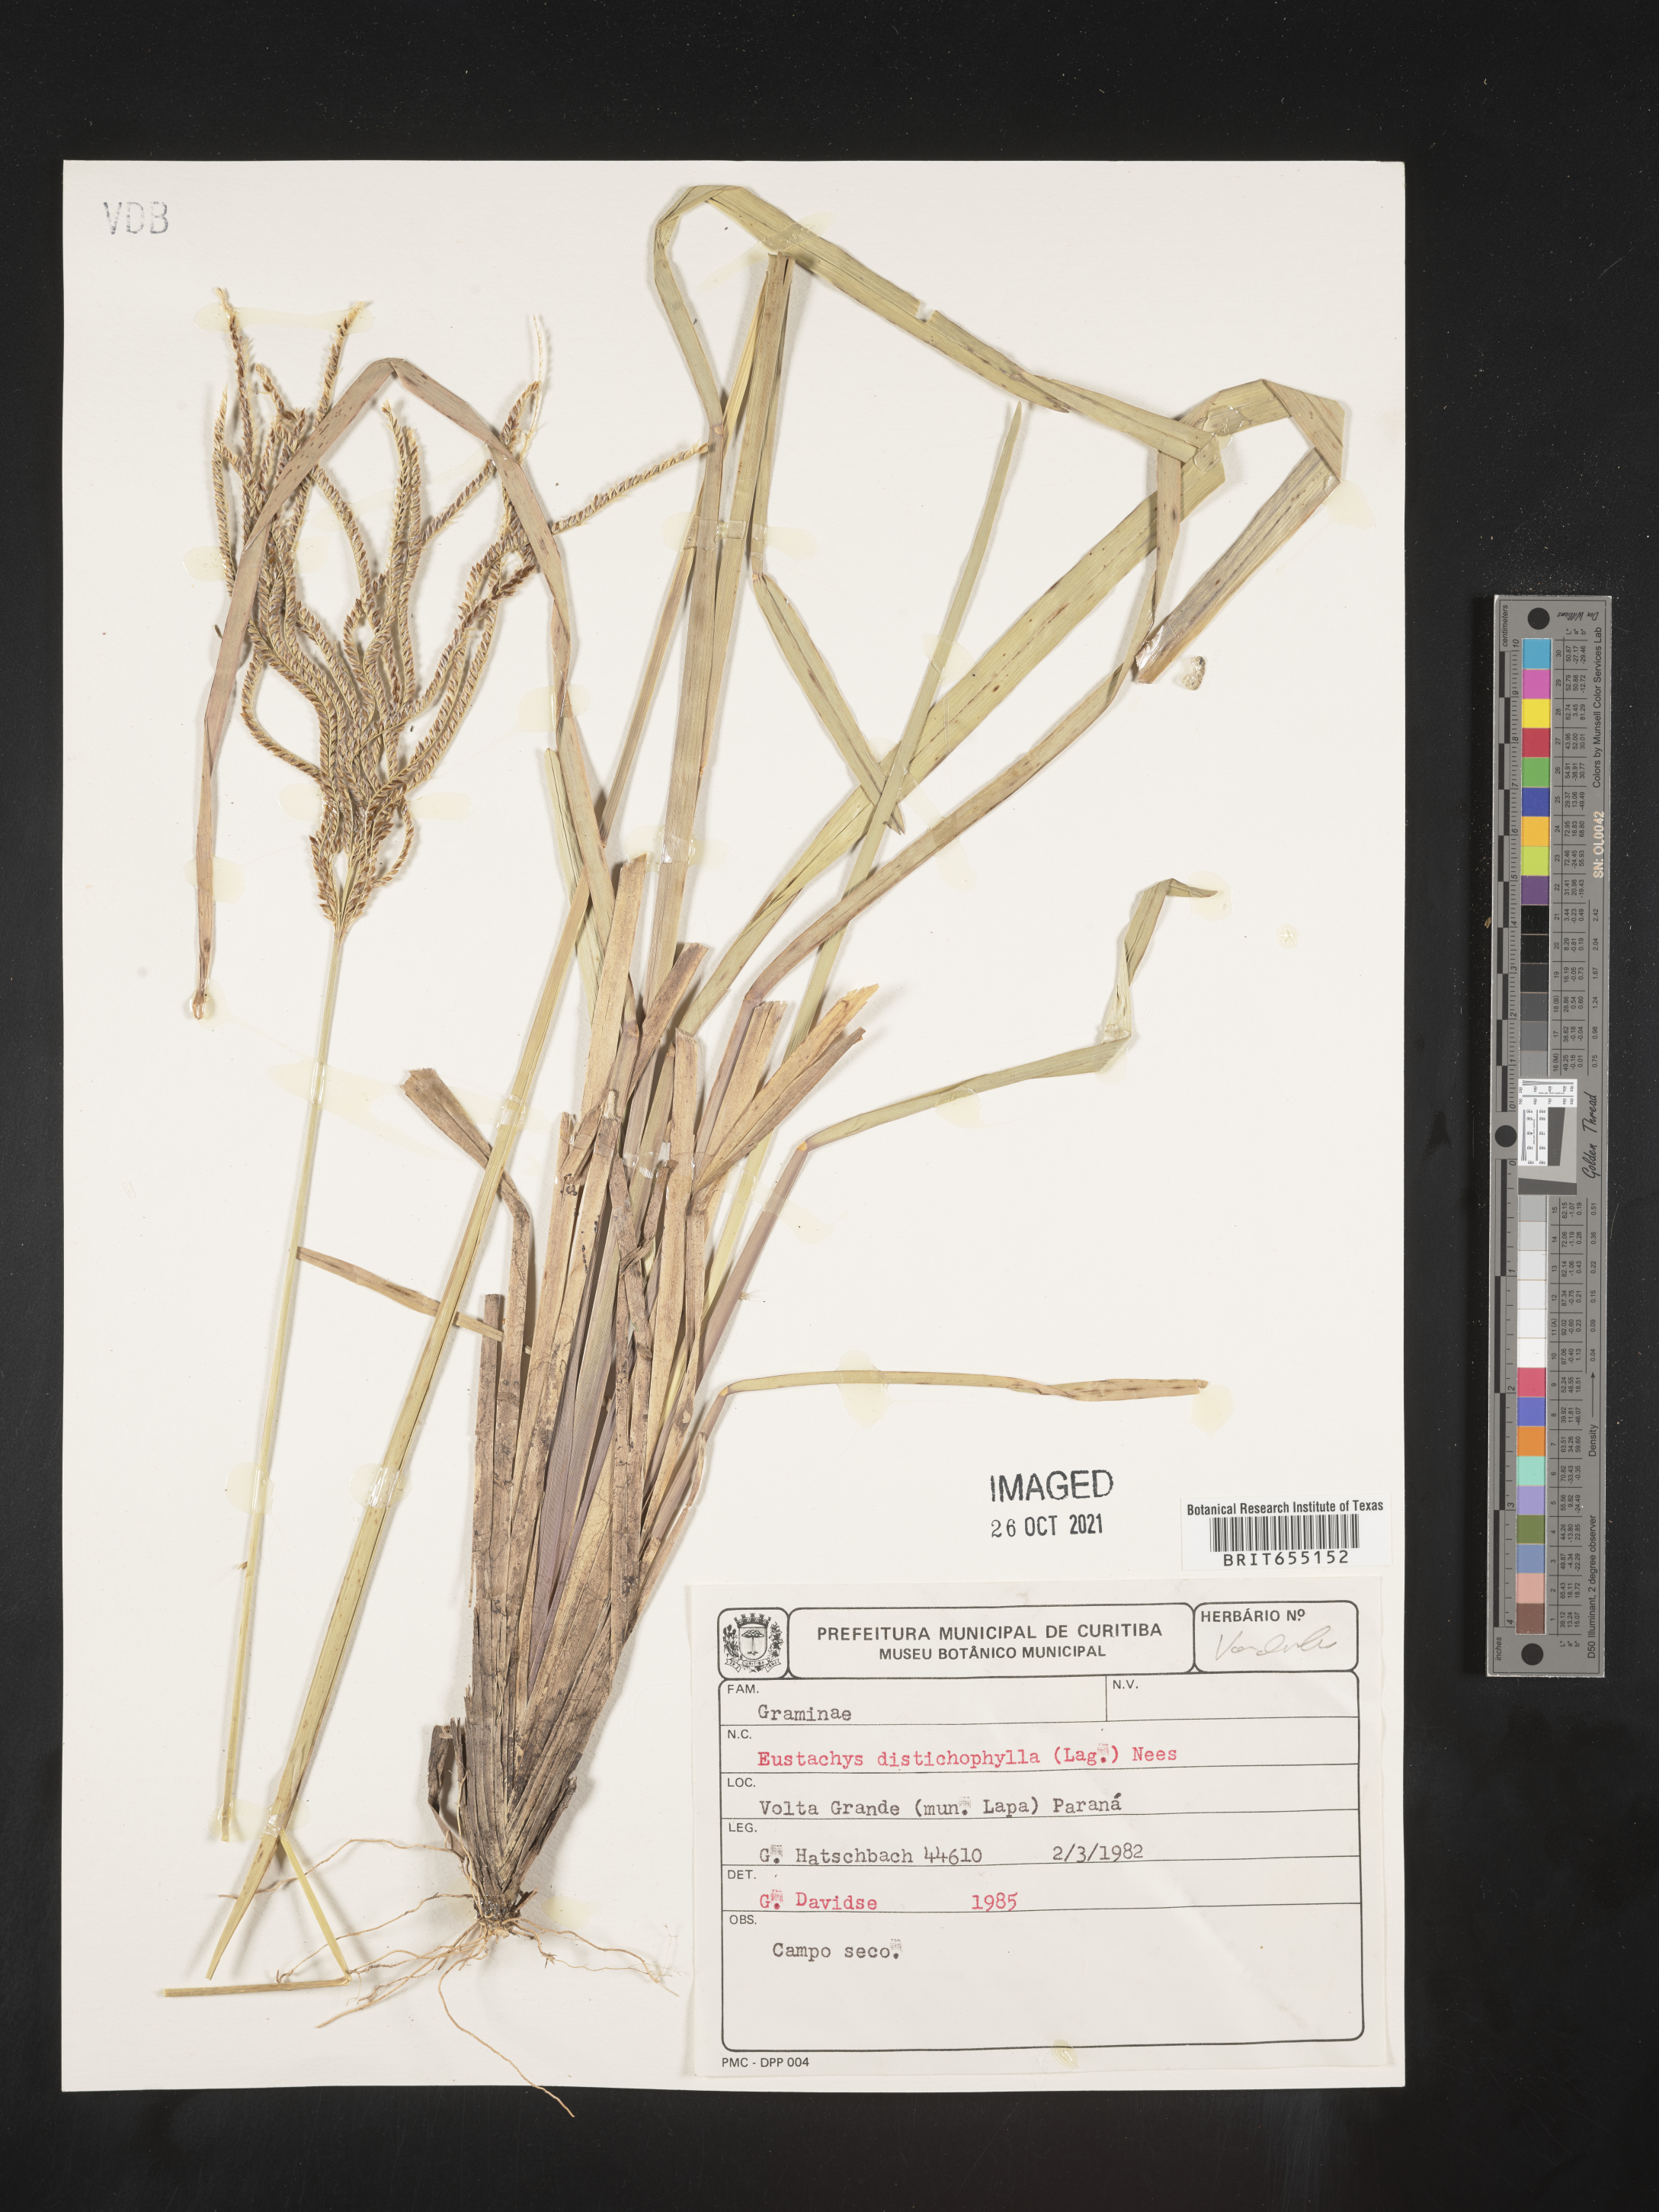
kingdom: Plantae
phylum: Tracheophyta
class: Liliopsida
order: Poales
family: Poaceae
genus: Chloris
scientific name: Chloris
